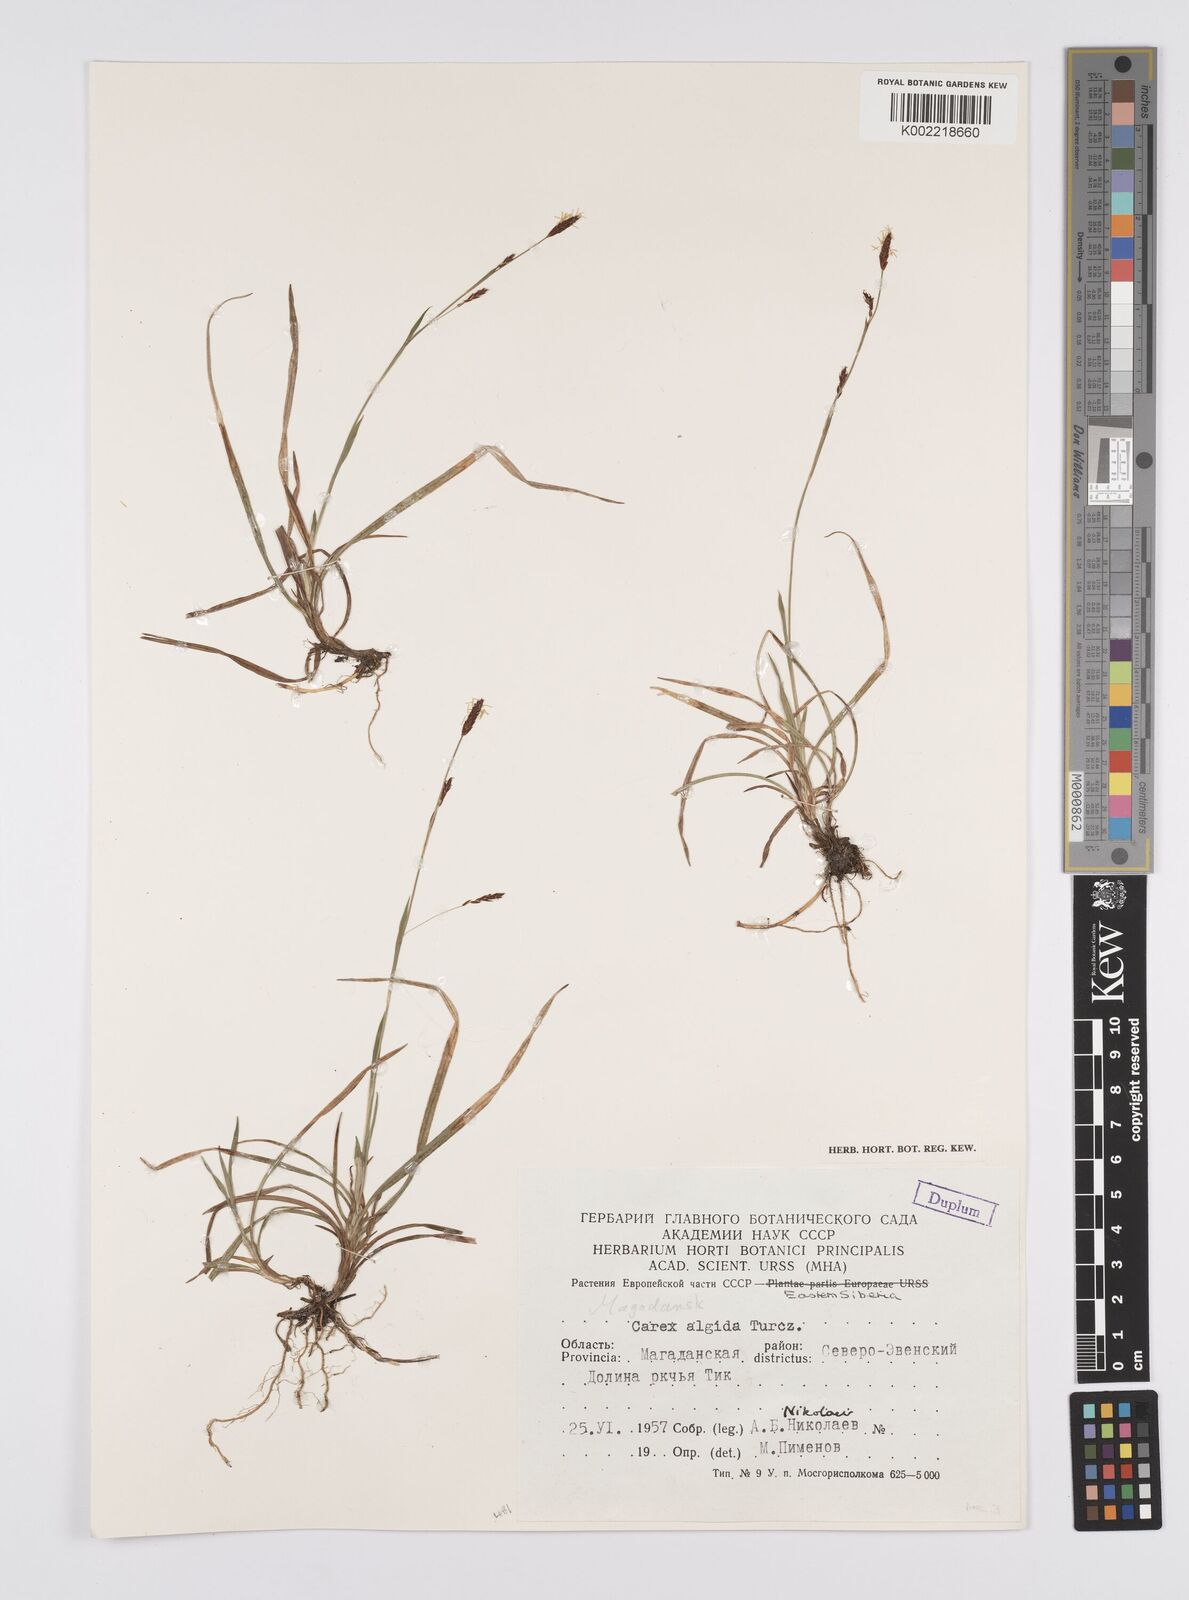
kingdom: Plantae
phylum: Tracheophyta
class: Liliopsida
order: Poales
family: Cyperaceae
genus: Carex
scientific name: Carex panicea
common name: Carnation sedge
